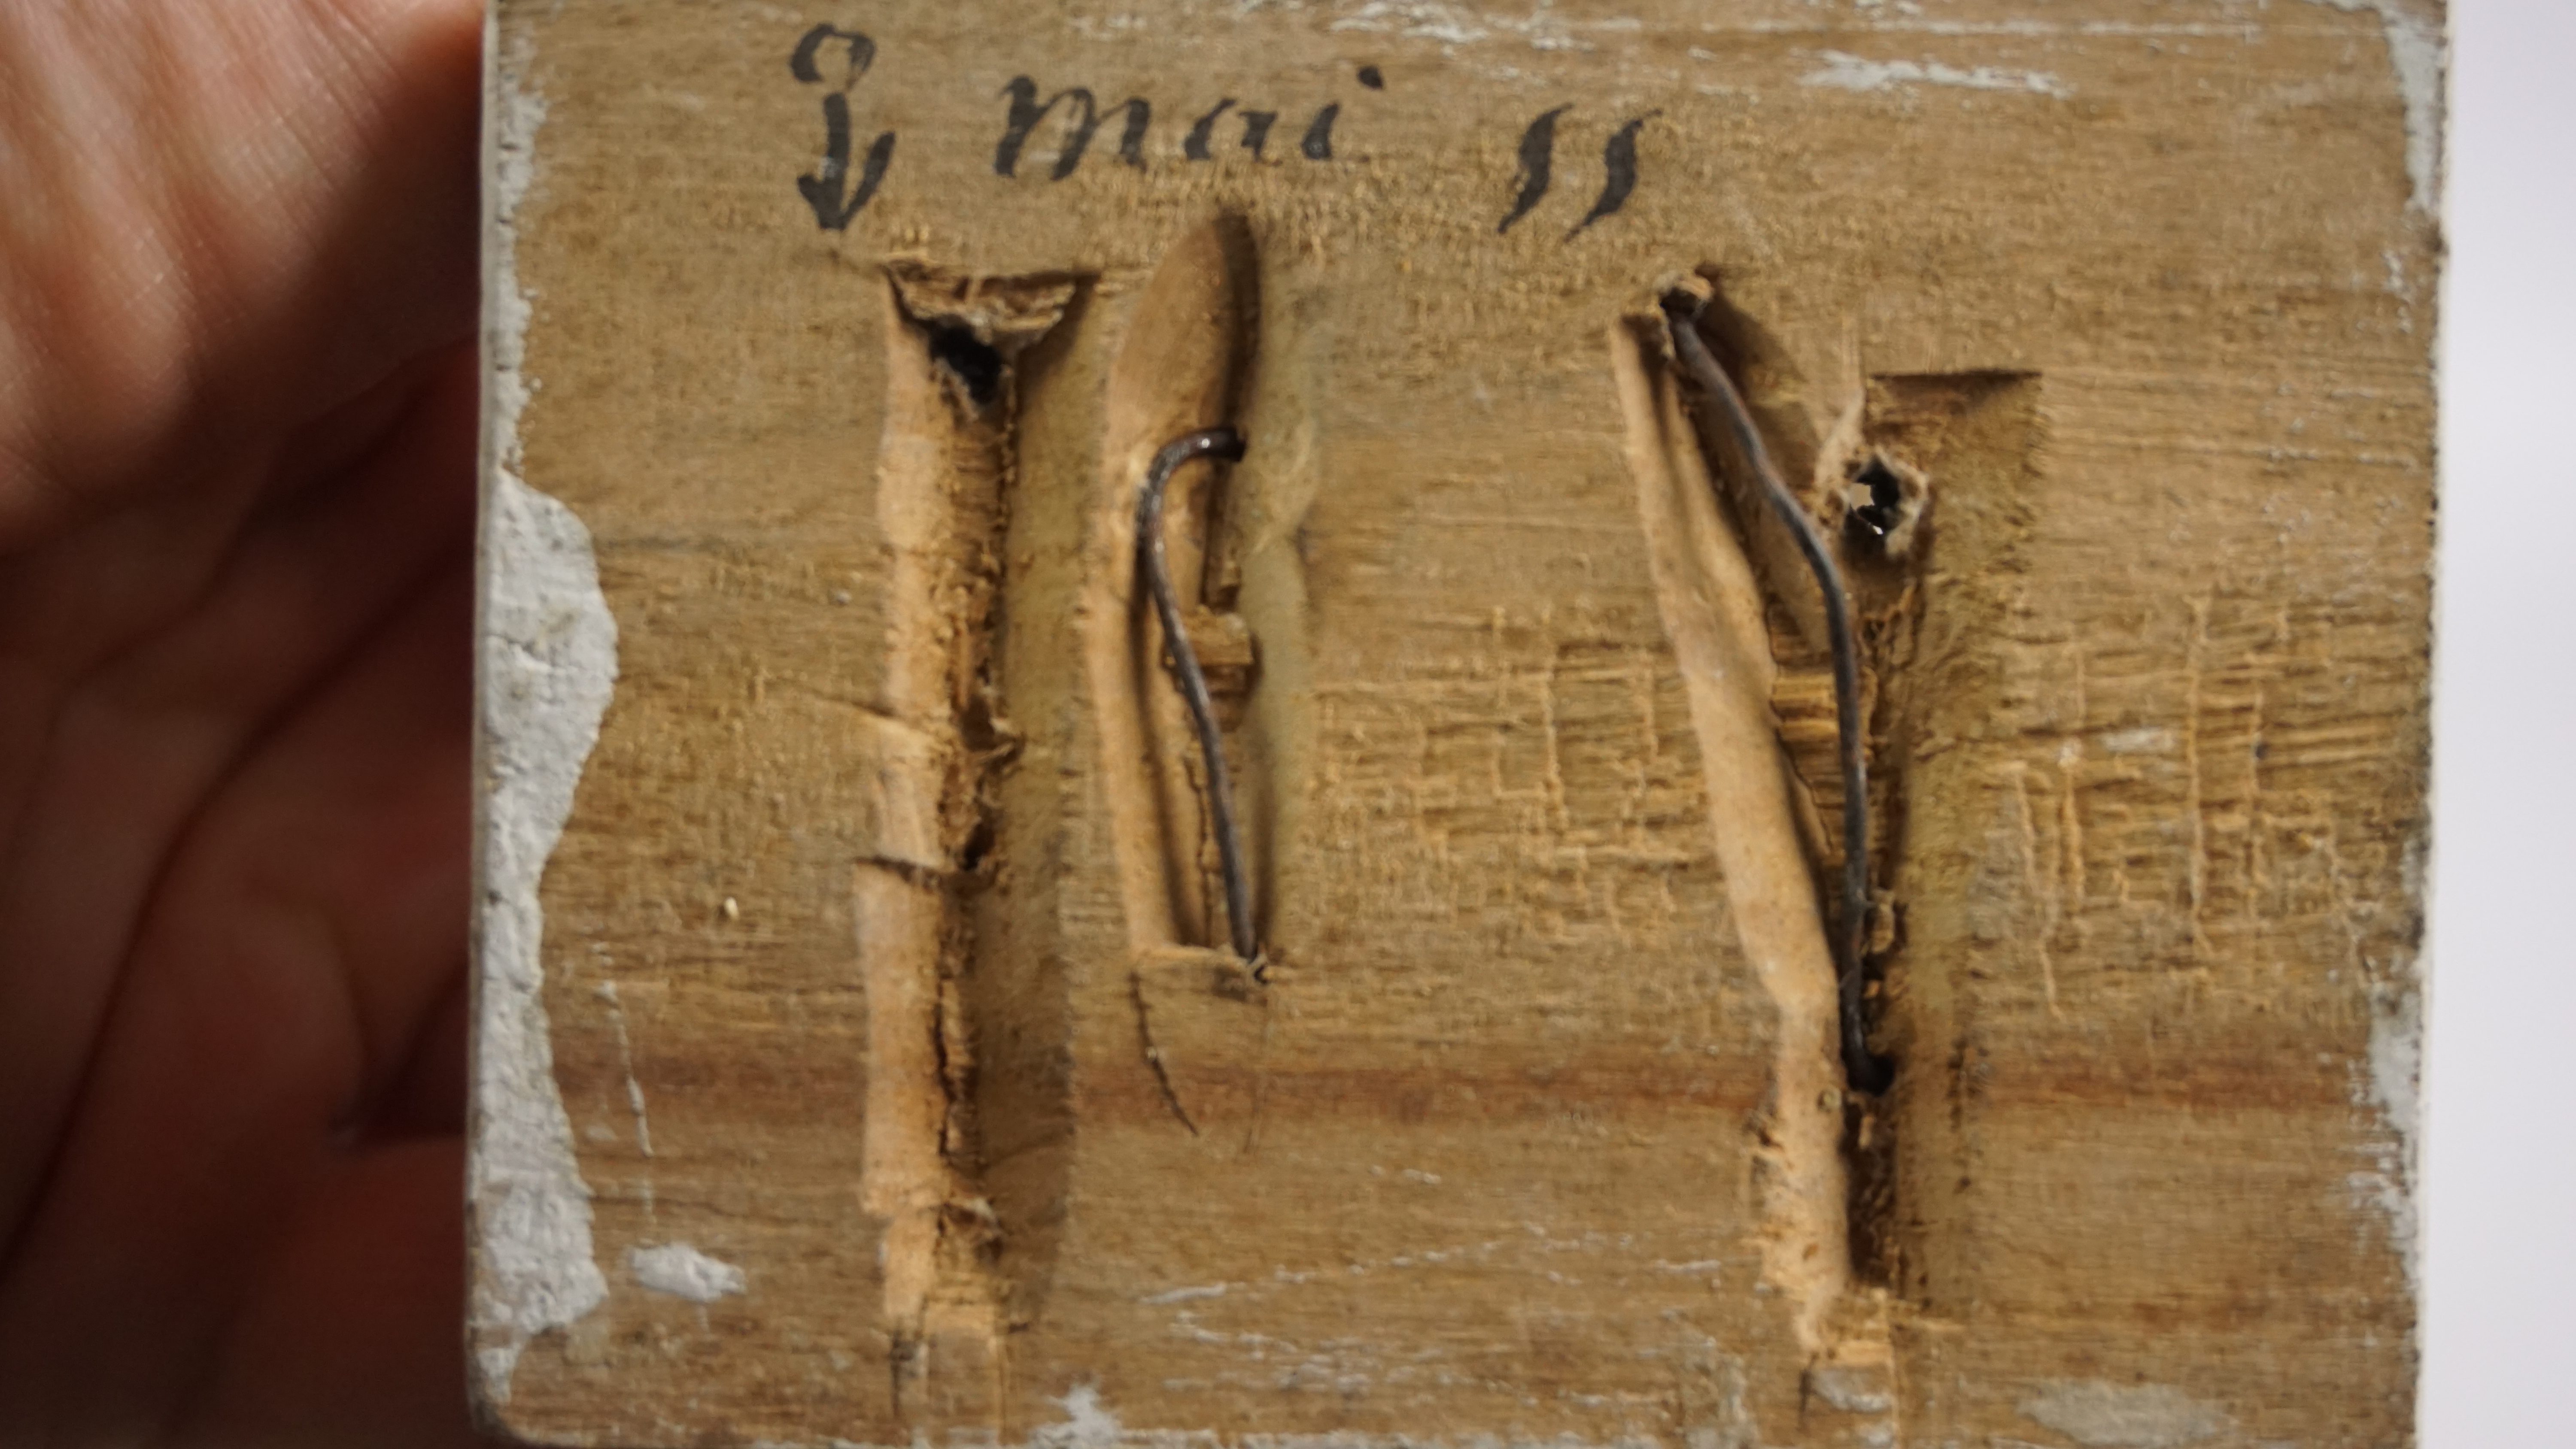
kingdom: Animalia
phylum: Chordata
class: Aves
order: Charadriiformes
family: Charadriidae
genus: Charadrius
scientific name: Charadrius morinellus
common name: Eurasian dotterel
